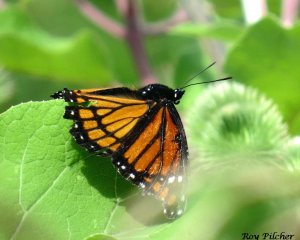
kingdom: Animalia
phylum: Arthropoda
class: Insecta
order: Lepidoptera
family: Nymphalidae
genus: Limenitis
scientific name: Limenitis archippus
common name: Viceroy
